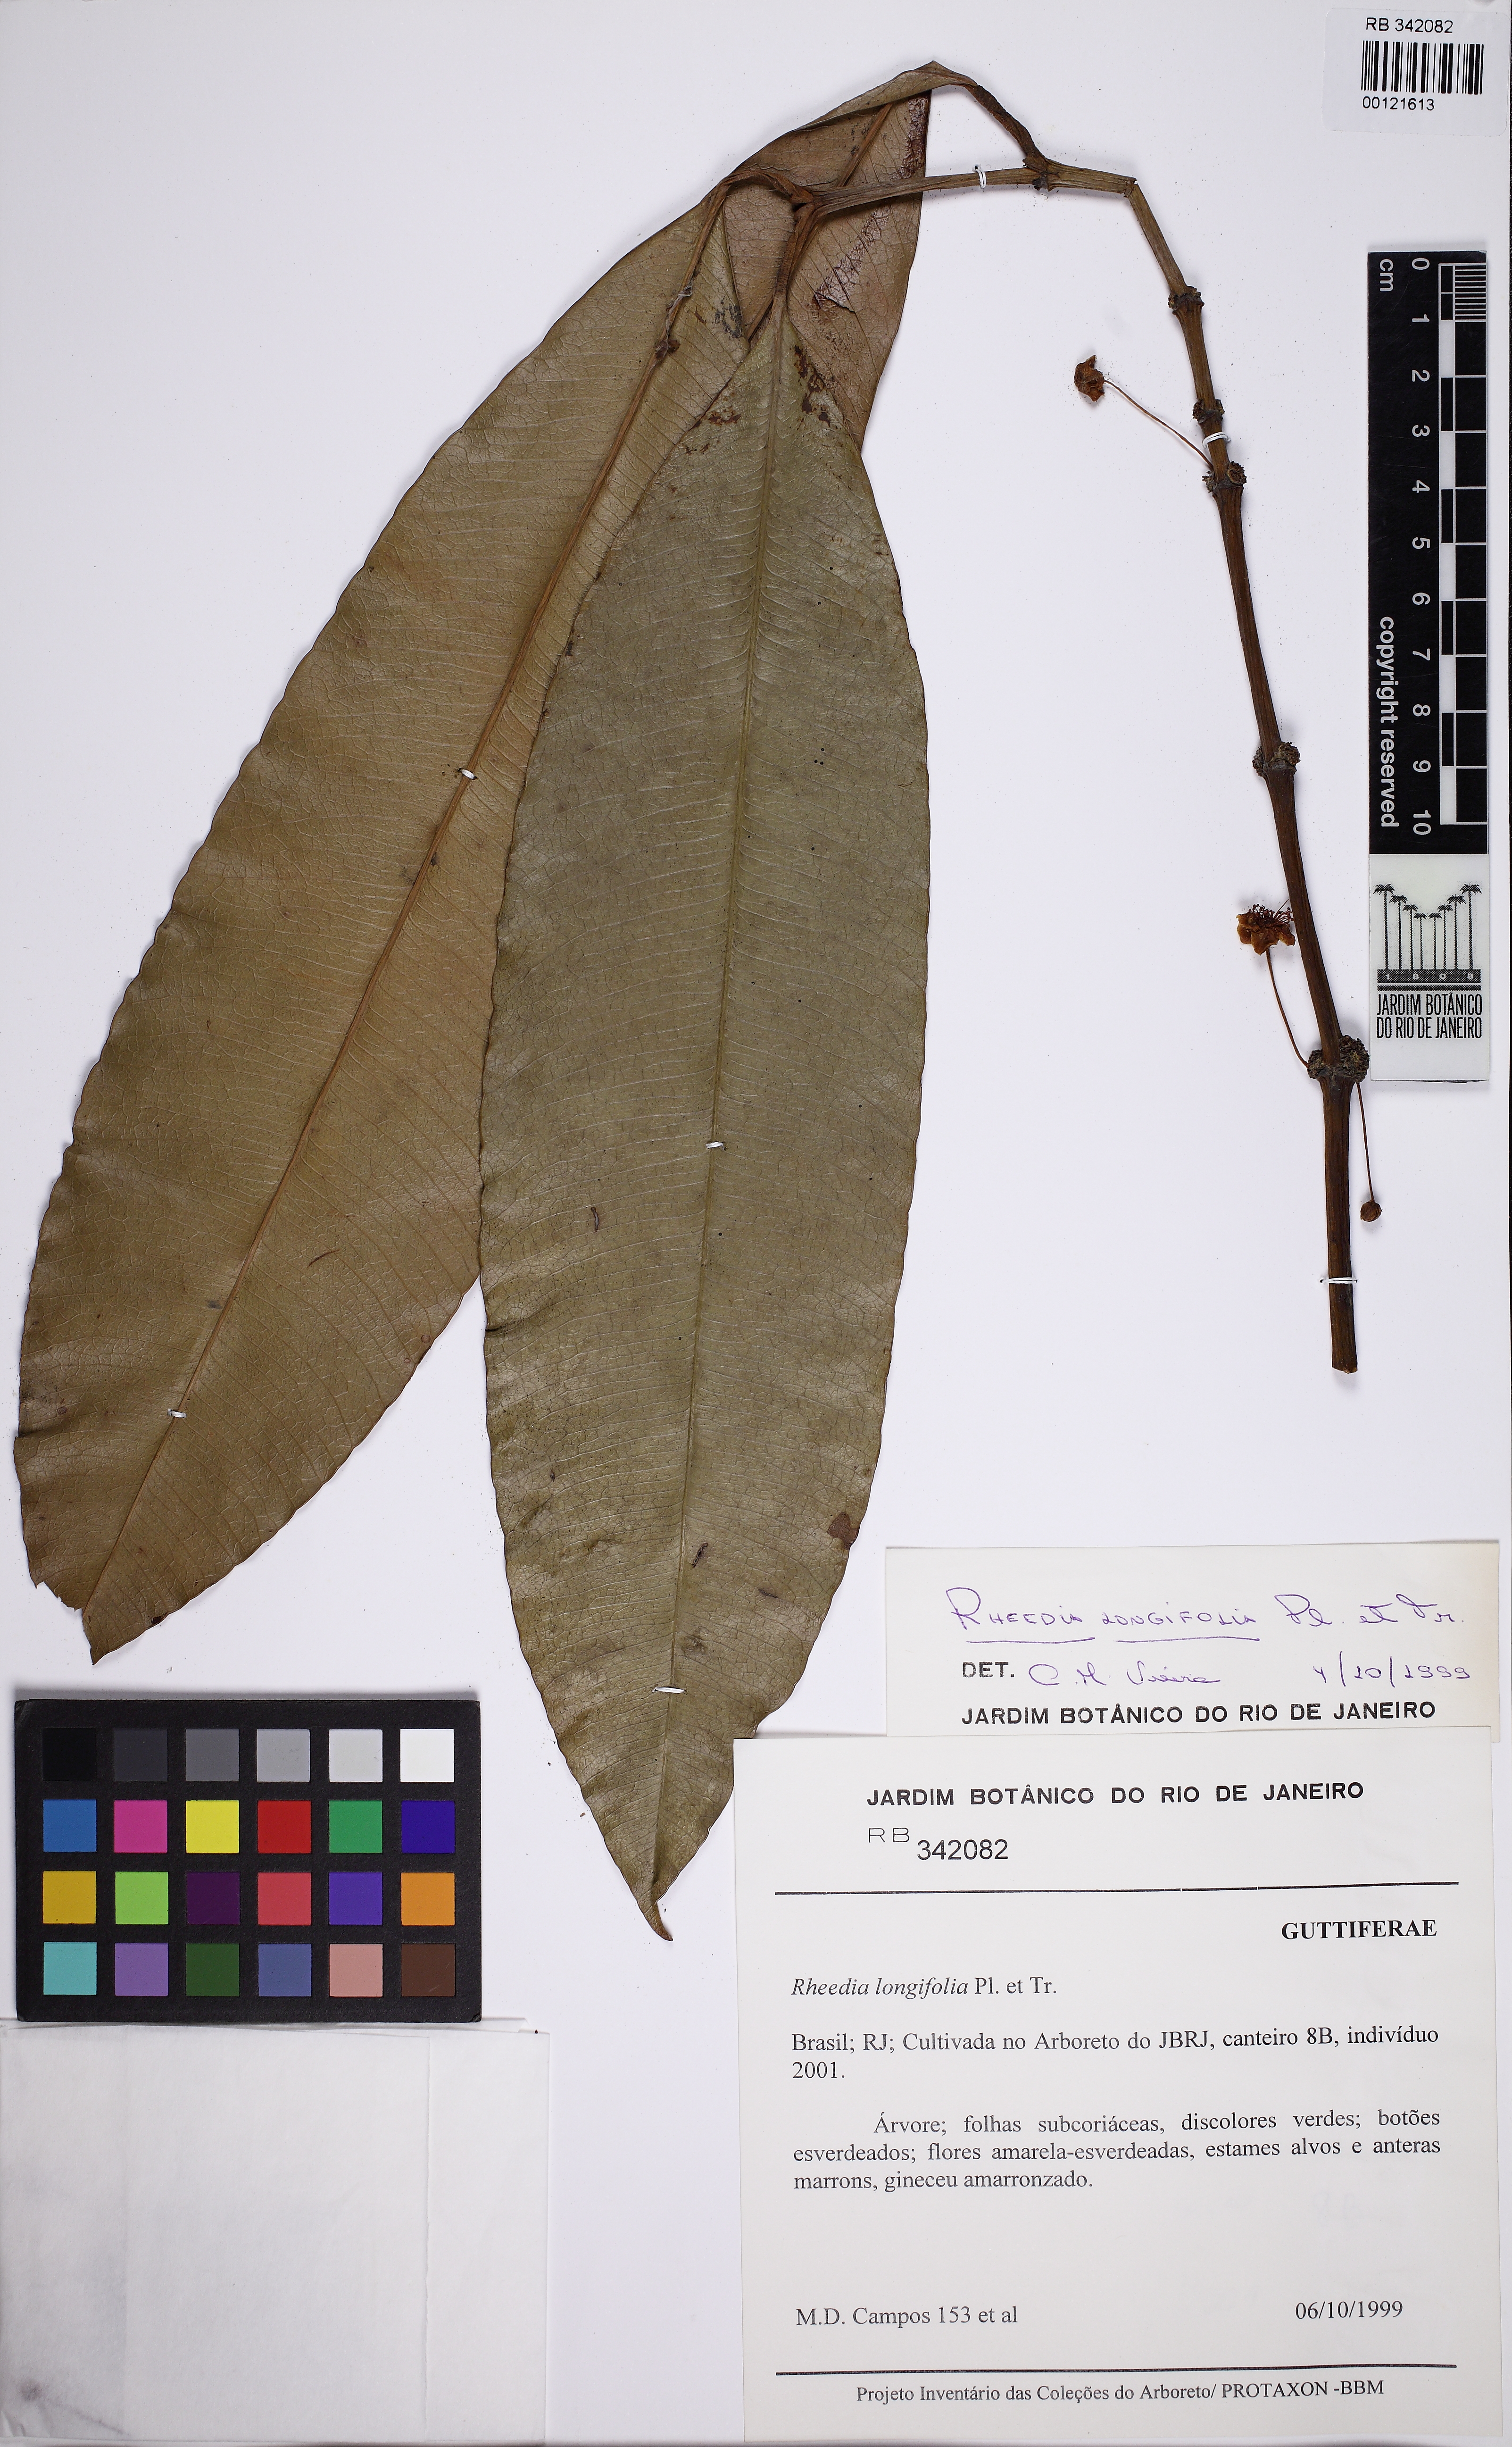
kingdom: Plantae
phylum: Tracheophyta
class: Magnoliopsida
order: Malpighiales
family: Clusiaceae
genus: Garcinia
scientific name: Garcinia macrophylla
